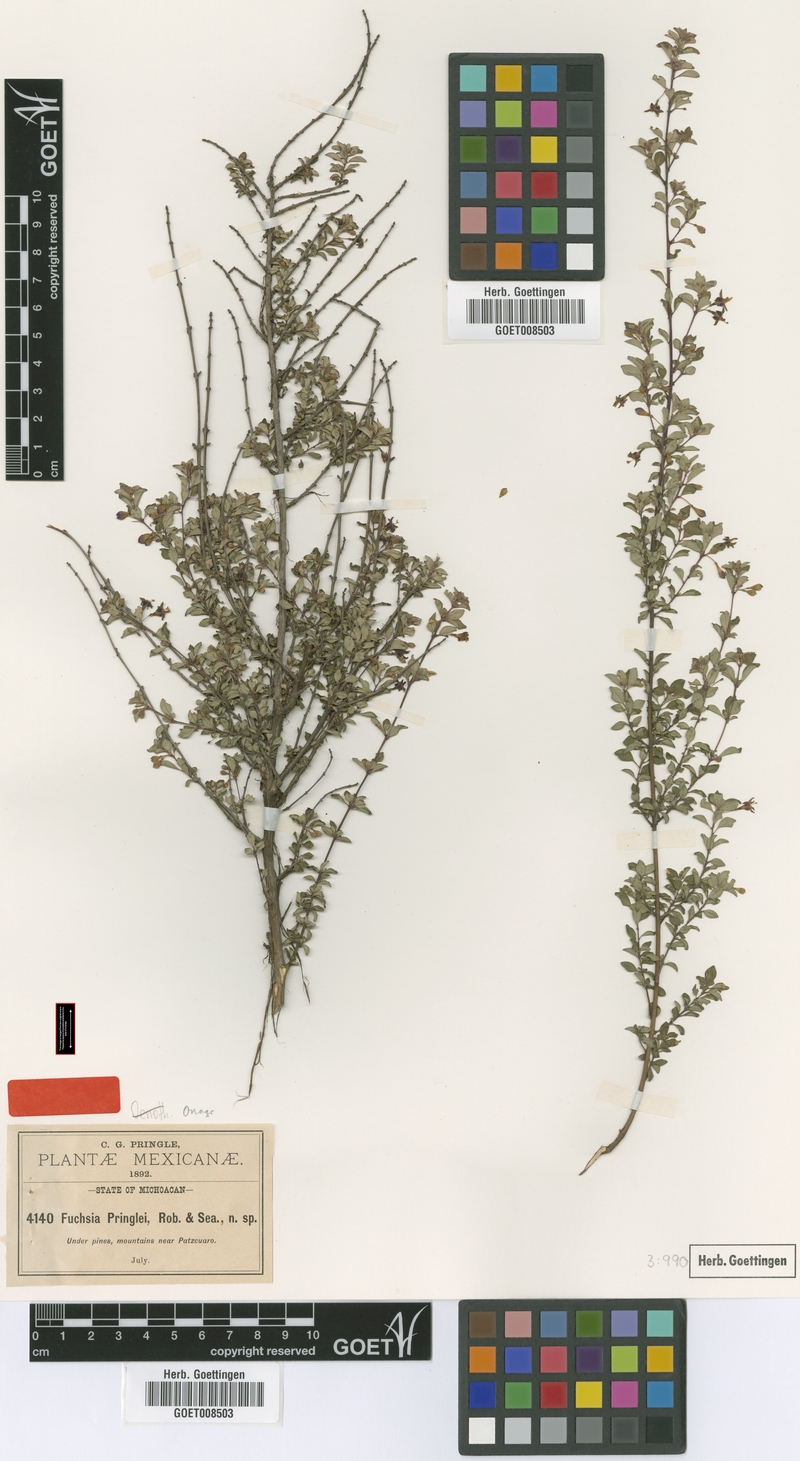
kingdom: Plantae
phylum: Tracheophyta
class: Magnoliopsida
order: Myrtales
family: Onagraceae
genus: Fuchsia
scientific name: Fuchsia thymifolia
